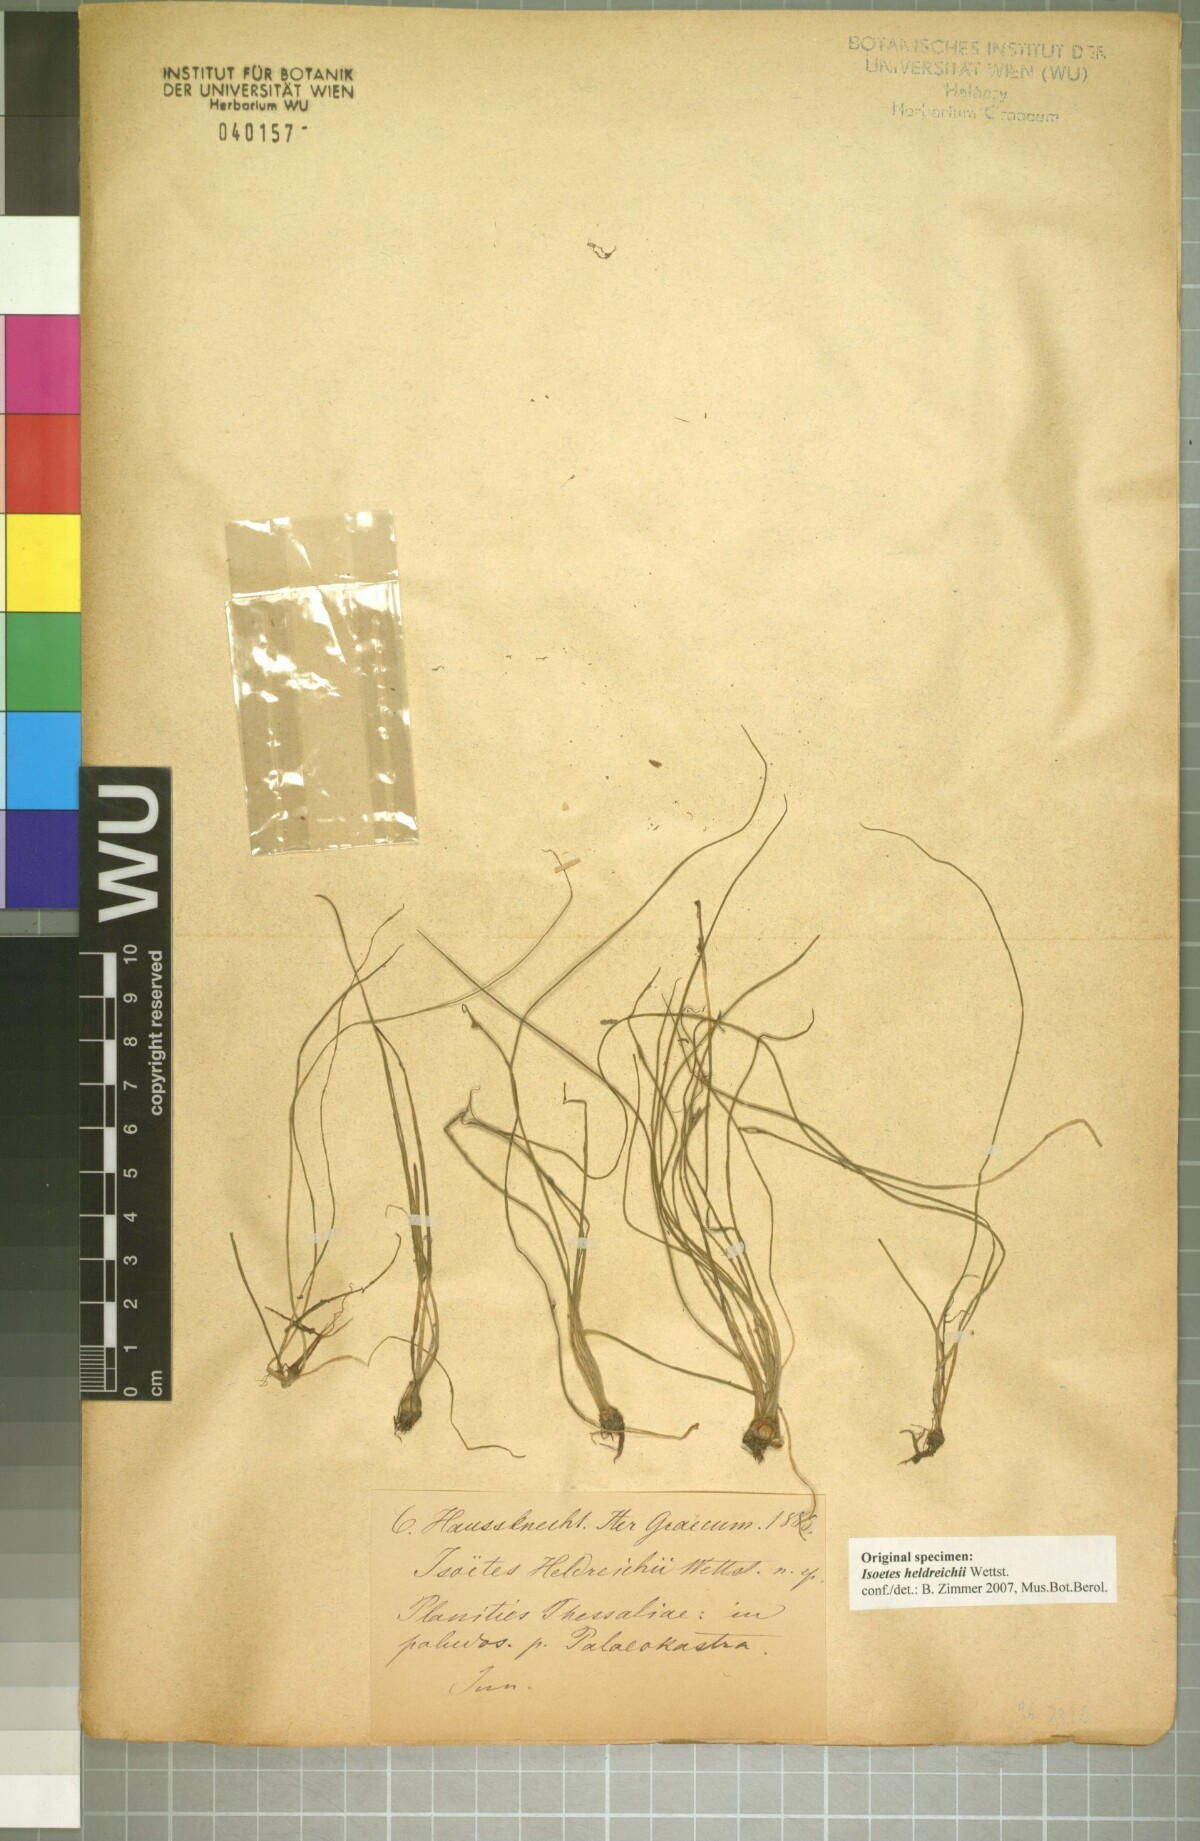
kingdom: Plantae
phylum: Tracheophyta
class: Lycopodiopsida
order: Isoetales
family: Isoetaceae
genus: Isoetes
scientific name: Isoetes heldreichii
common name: Pindus quillwort
